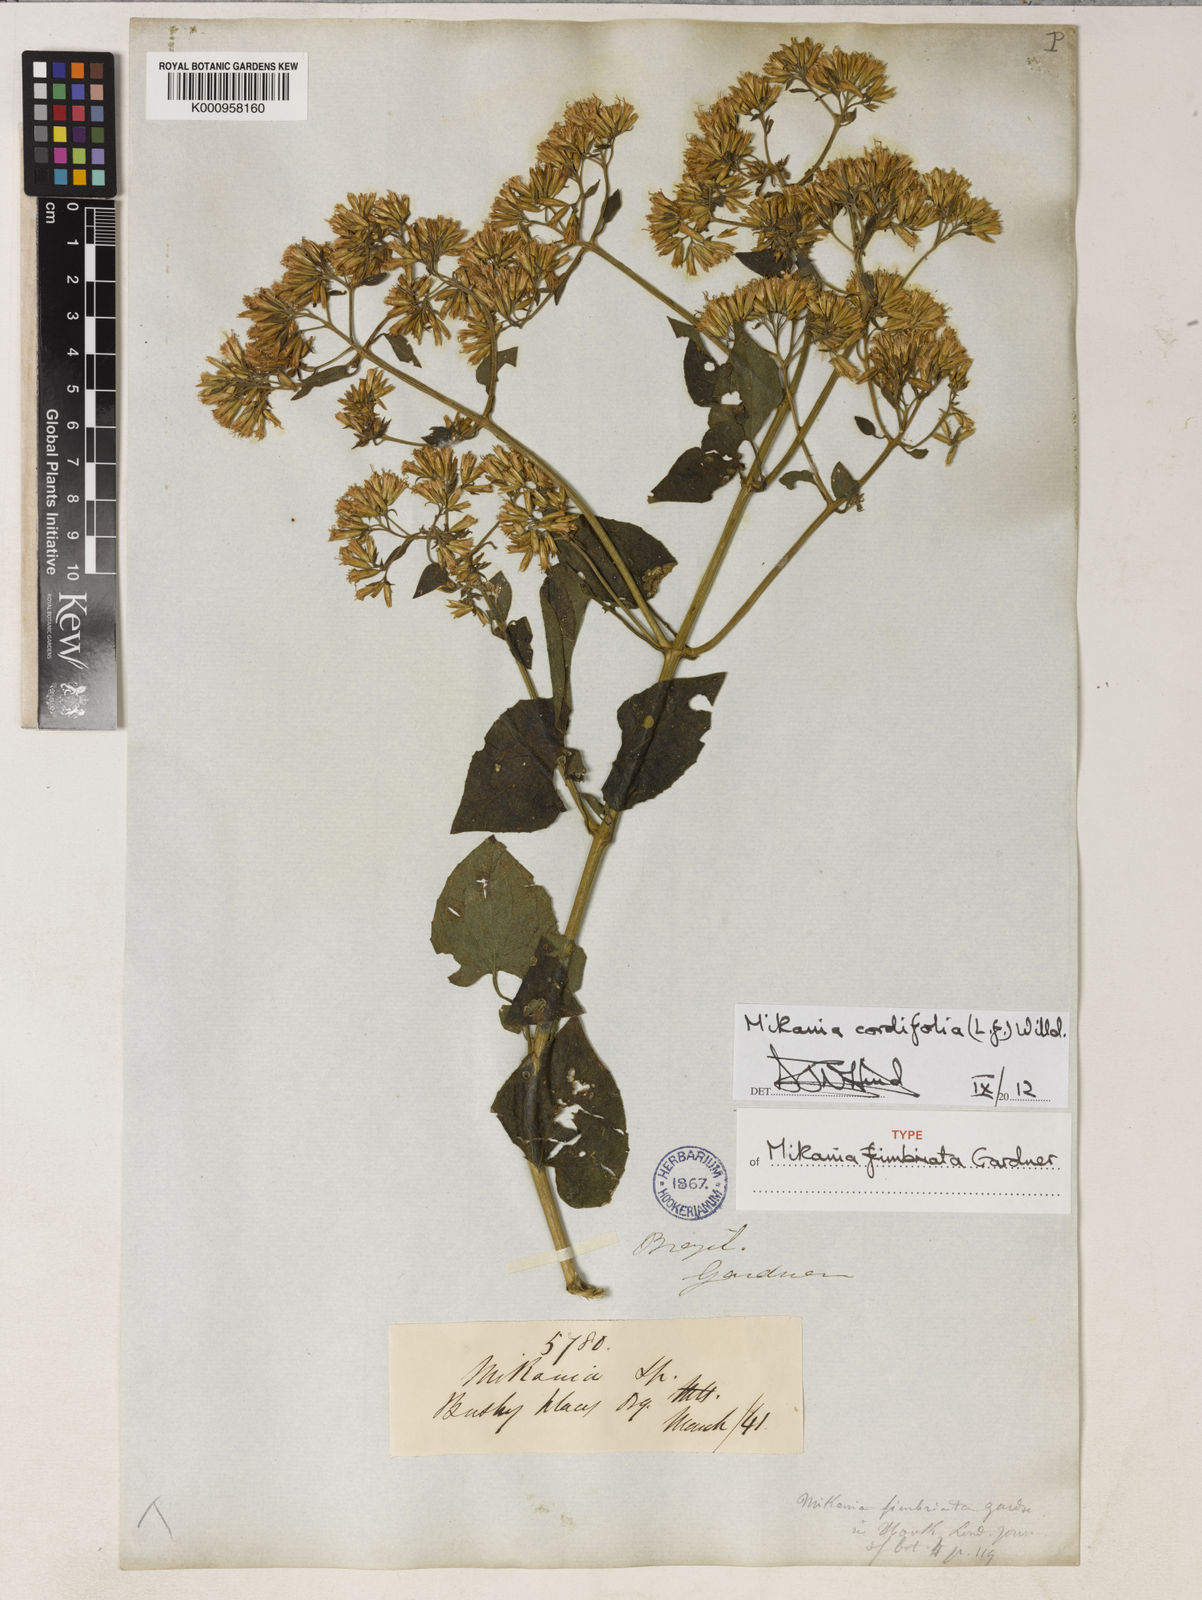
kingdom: Plantae
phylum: Tracheophyta
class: Magnoliopsida
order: Asterales
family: Asteraceae
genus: Mikania
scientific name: Mikania cordifolia
